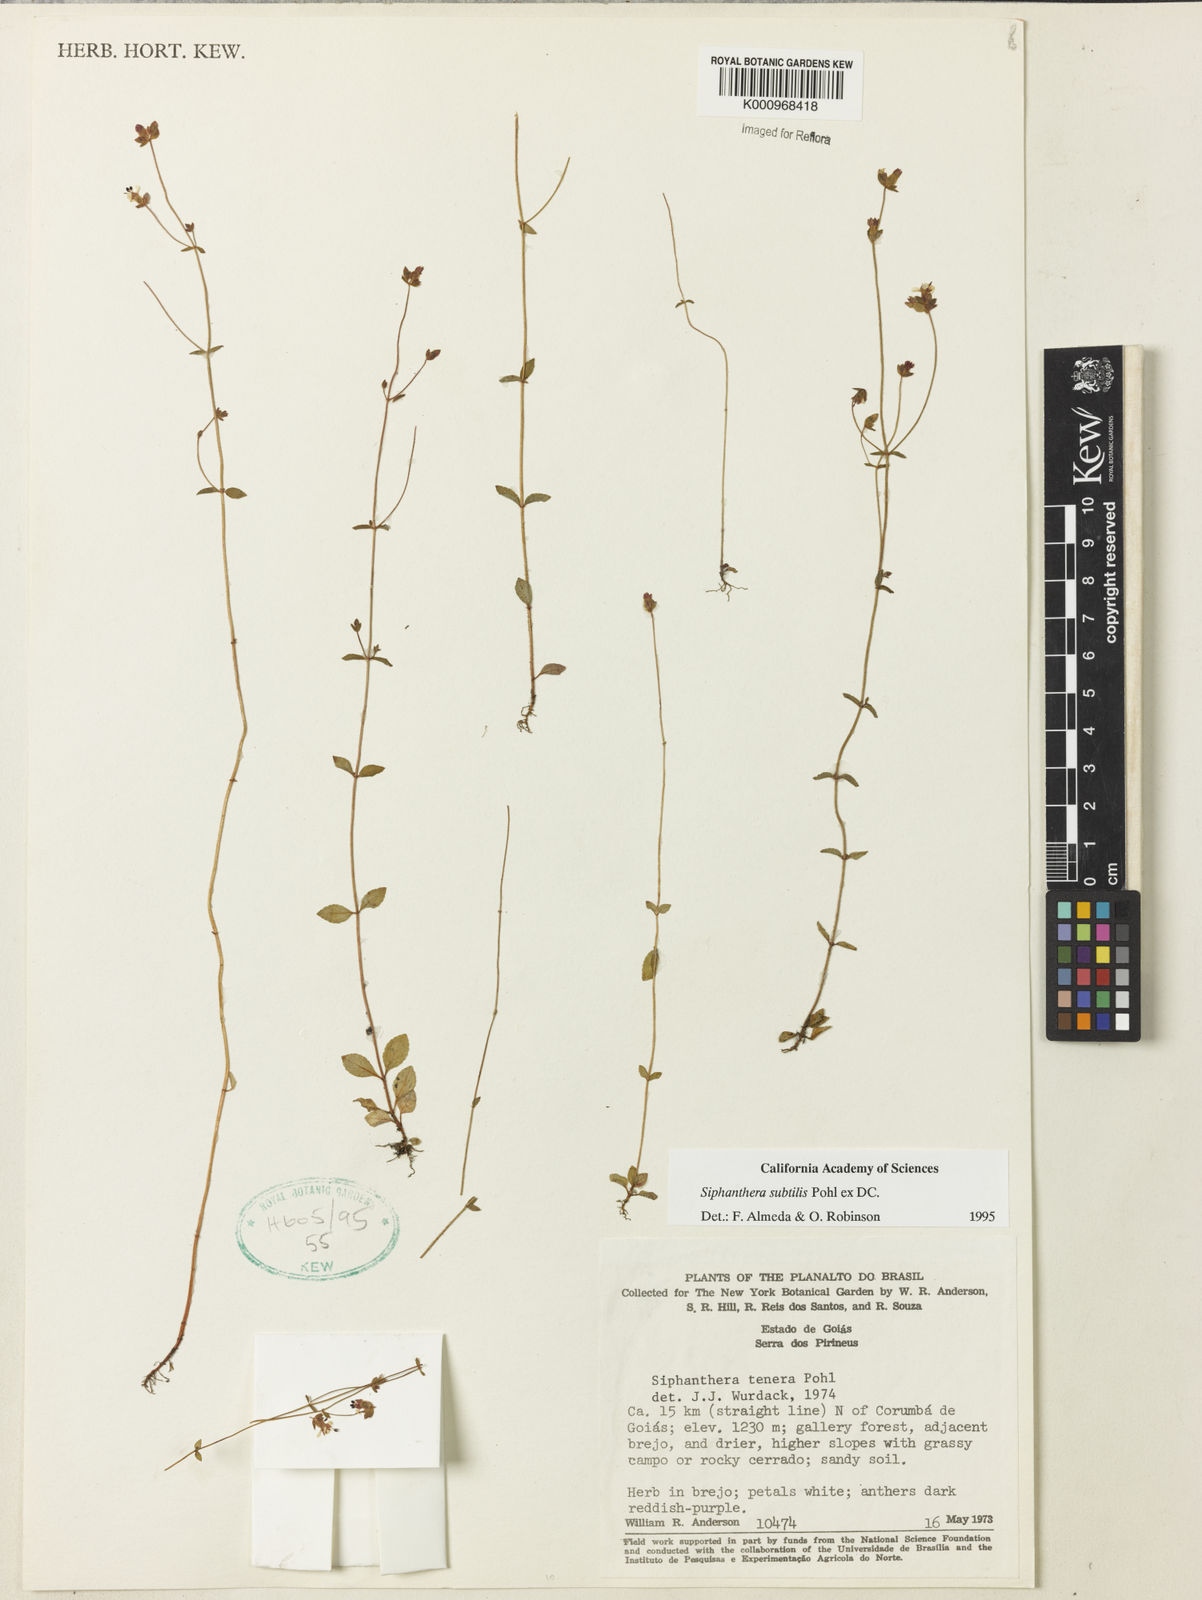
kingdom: Plantae
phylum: Tracheophyta
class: Magnoliopsida
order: Myrtales
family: Melastomataceae
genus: Siphanthera
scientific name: Siphanthera
